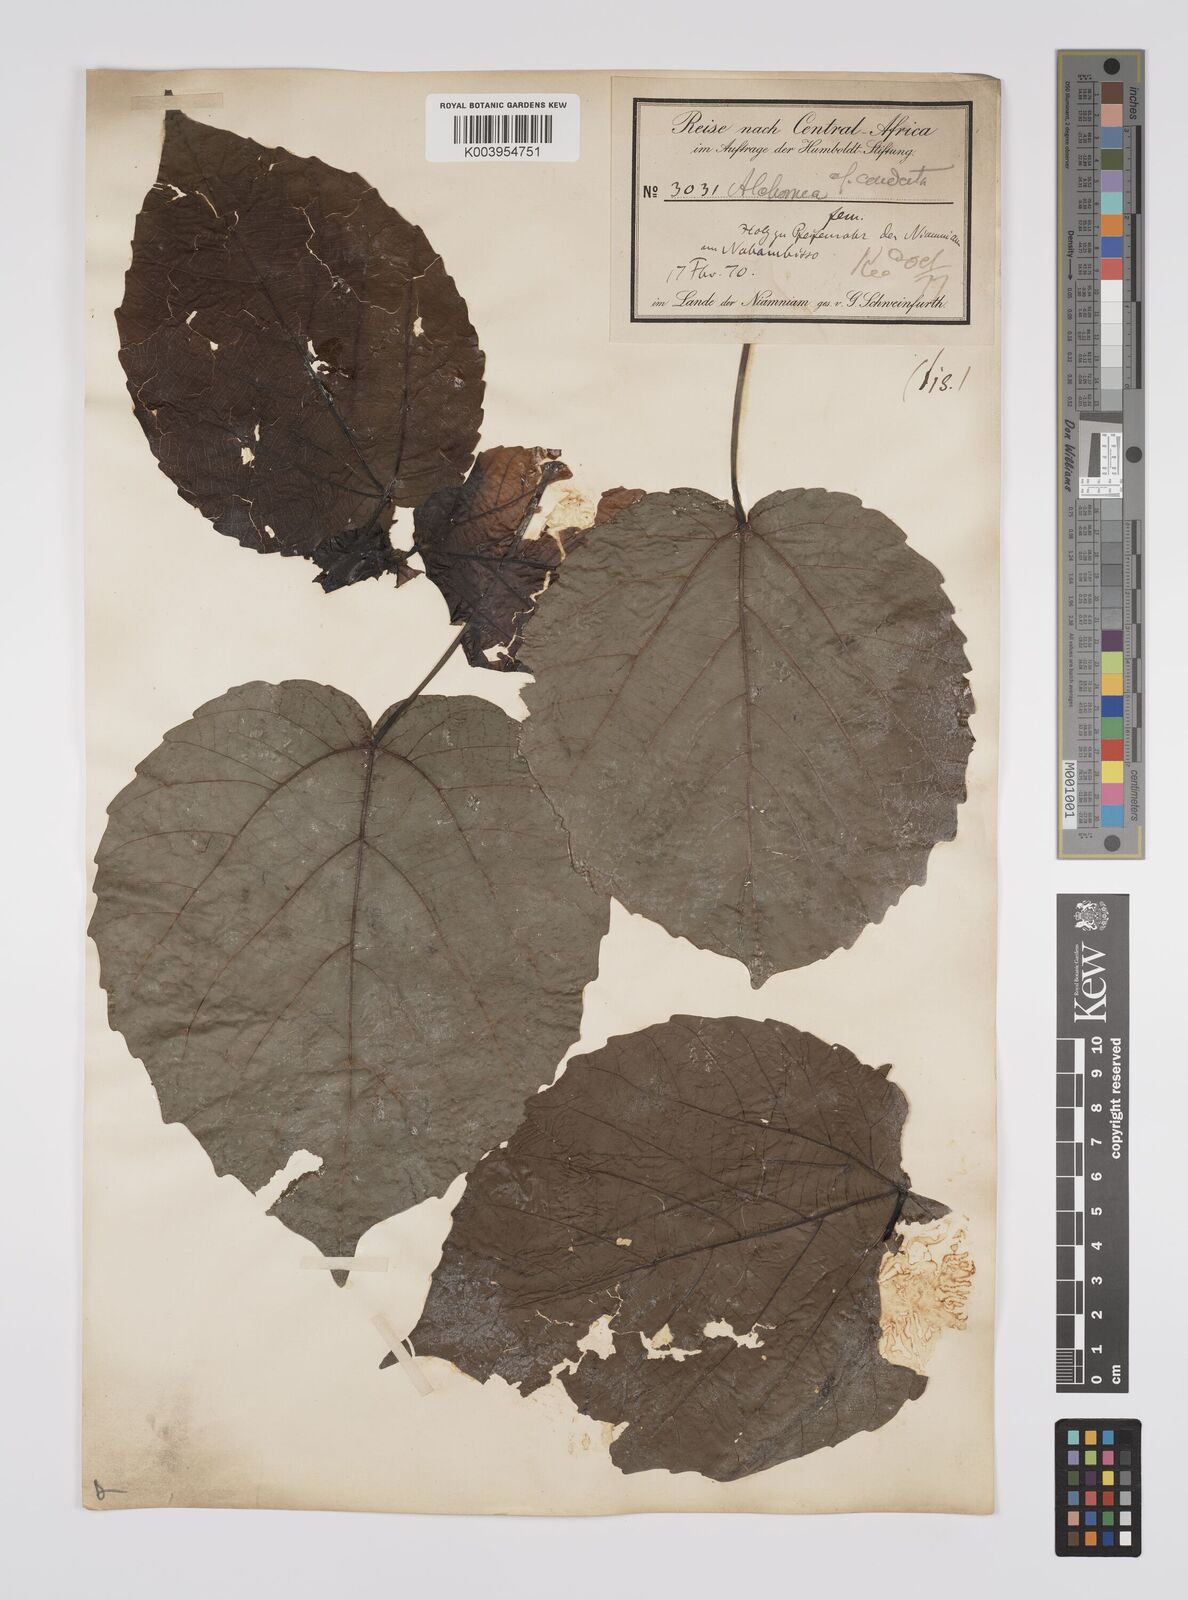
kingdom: Plantae
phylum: Tracheophyta
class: Magnoliopsida
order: Malpighiales
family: Euphorbiaceae
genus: Alchornea
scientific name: Alchornea cordifolia
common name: Christmasbush
